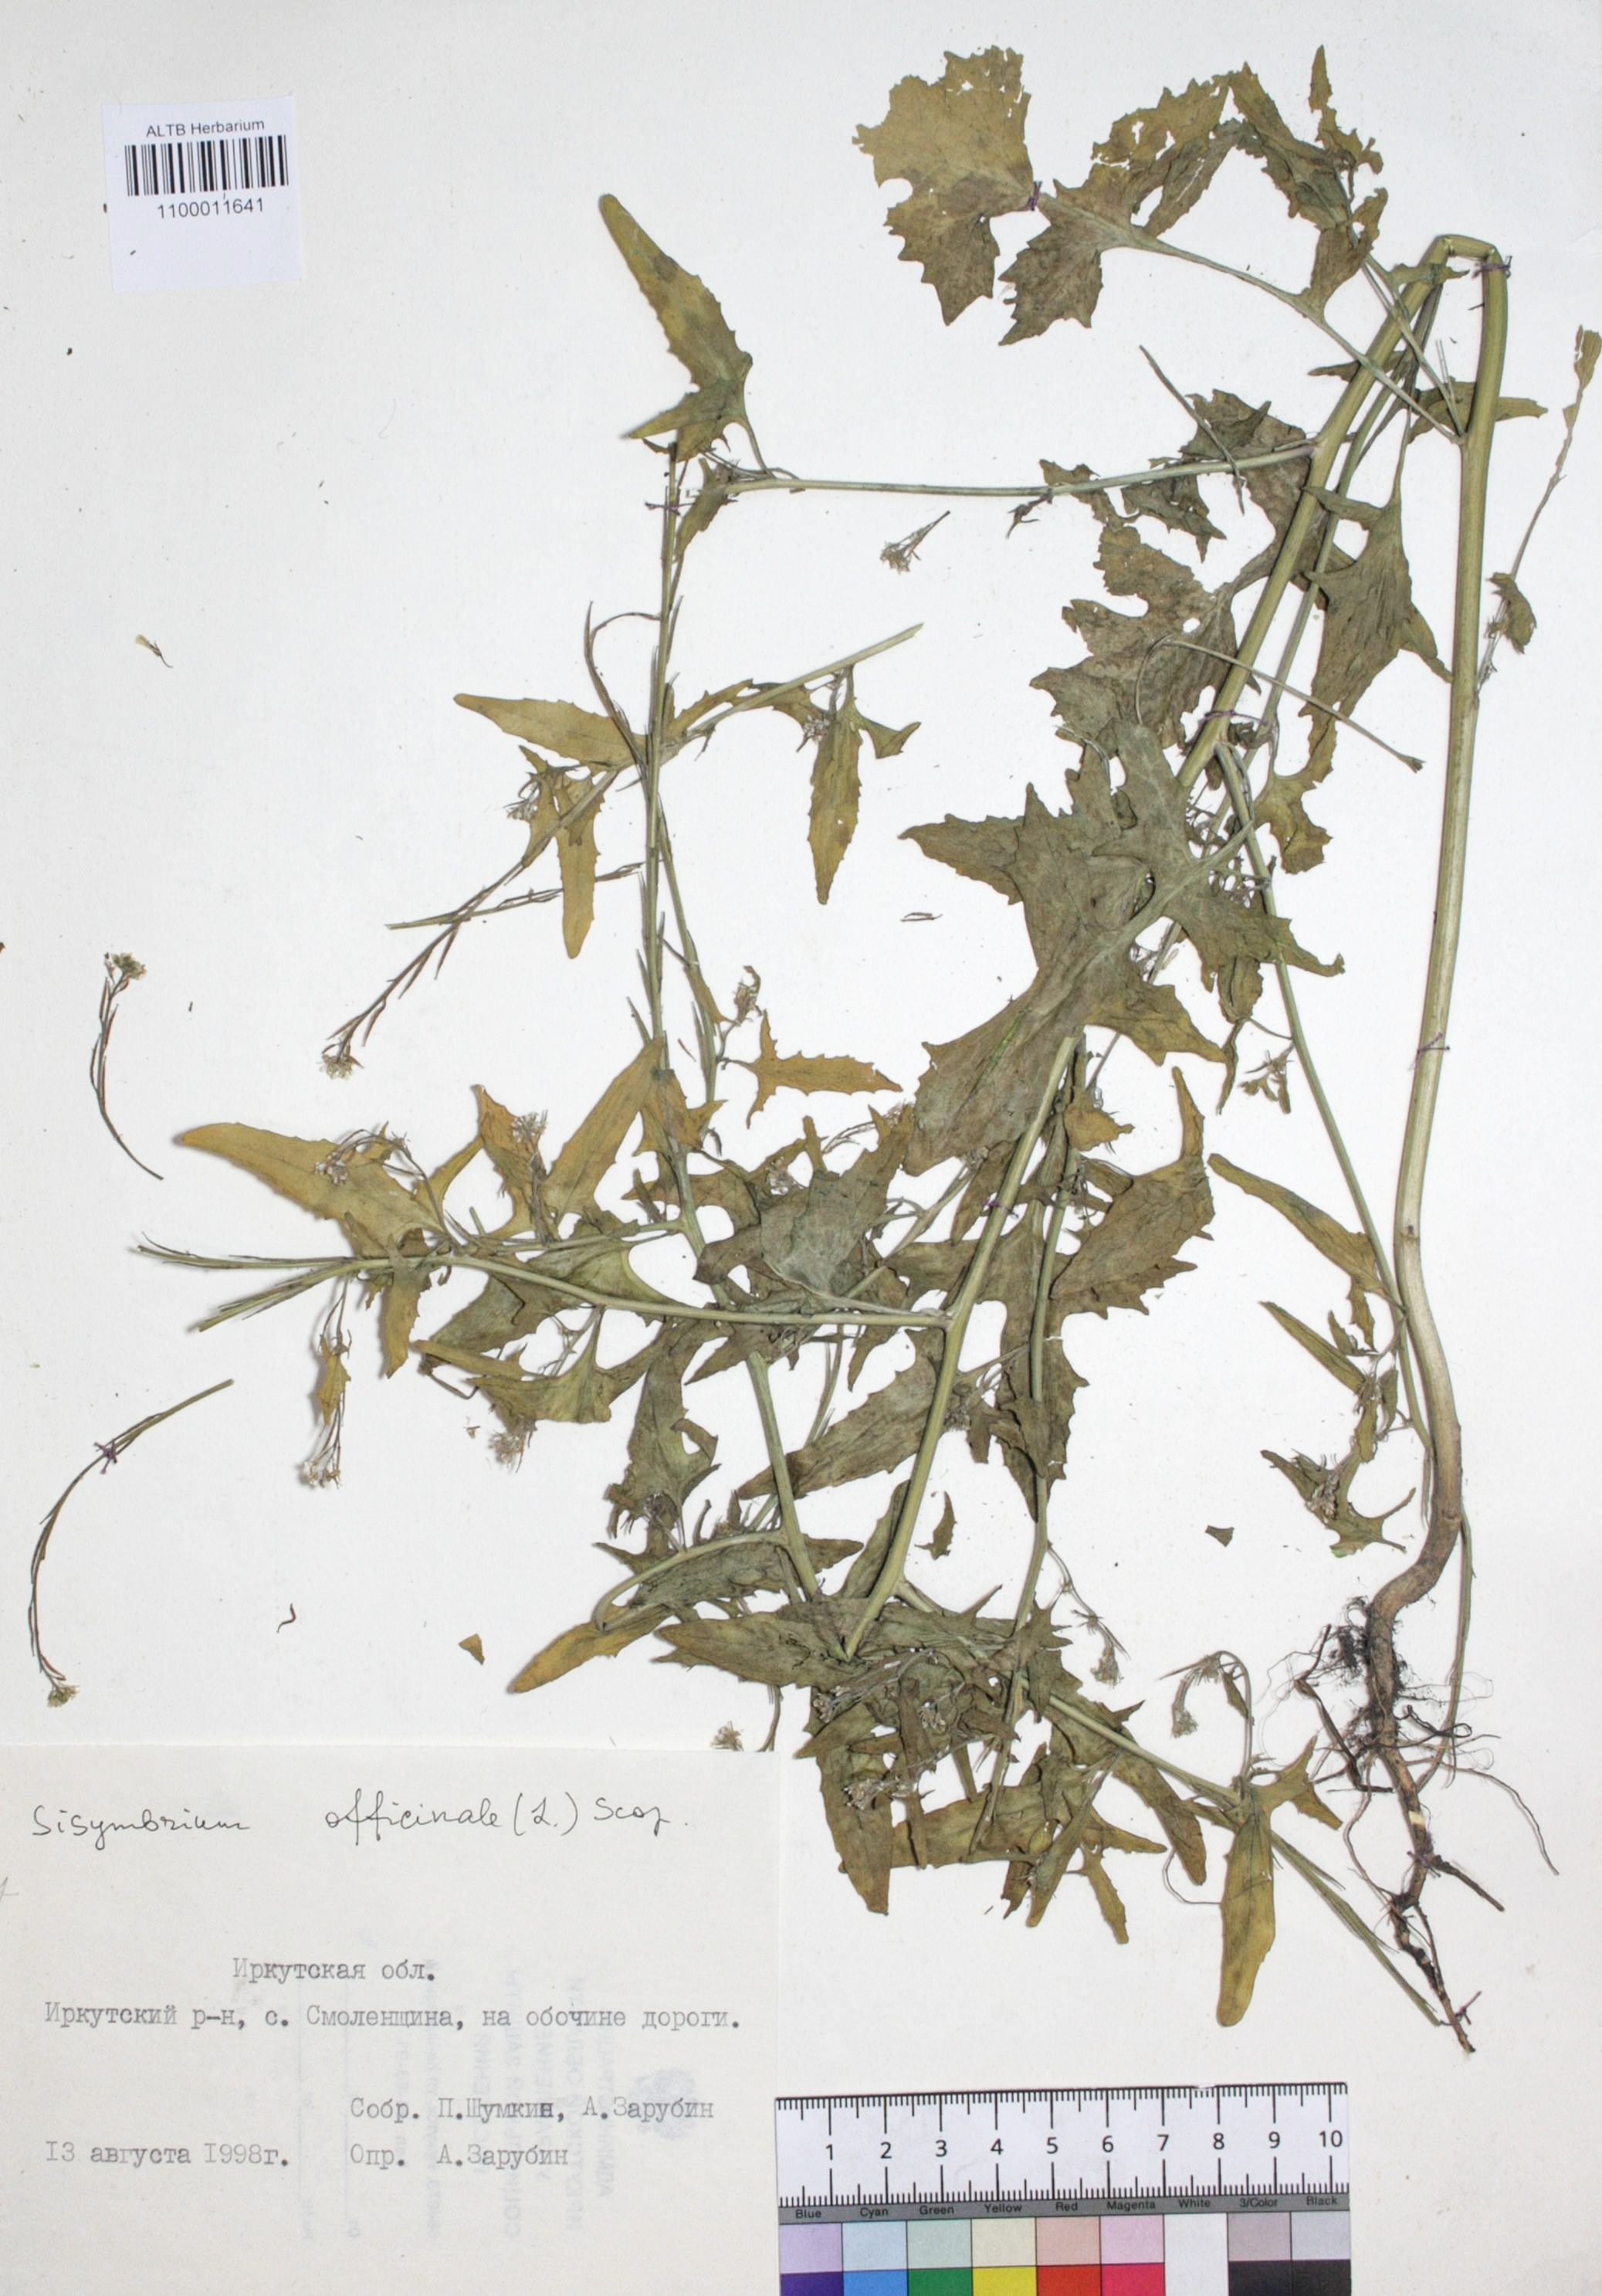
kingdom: Plantae
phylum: Tracheophyta
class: Magnoliopsida
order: Brassicales
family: Brassicaceae
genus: Sisymbrium
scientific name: Sisymbrium officinale
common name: Hedge mustard
